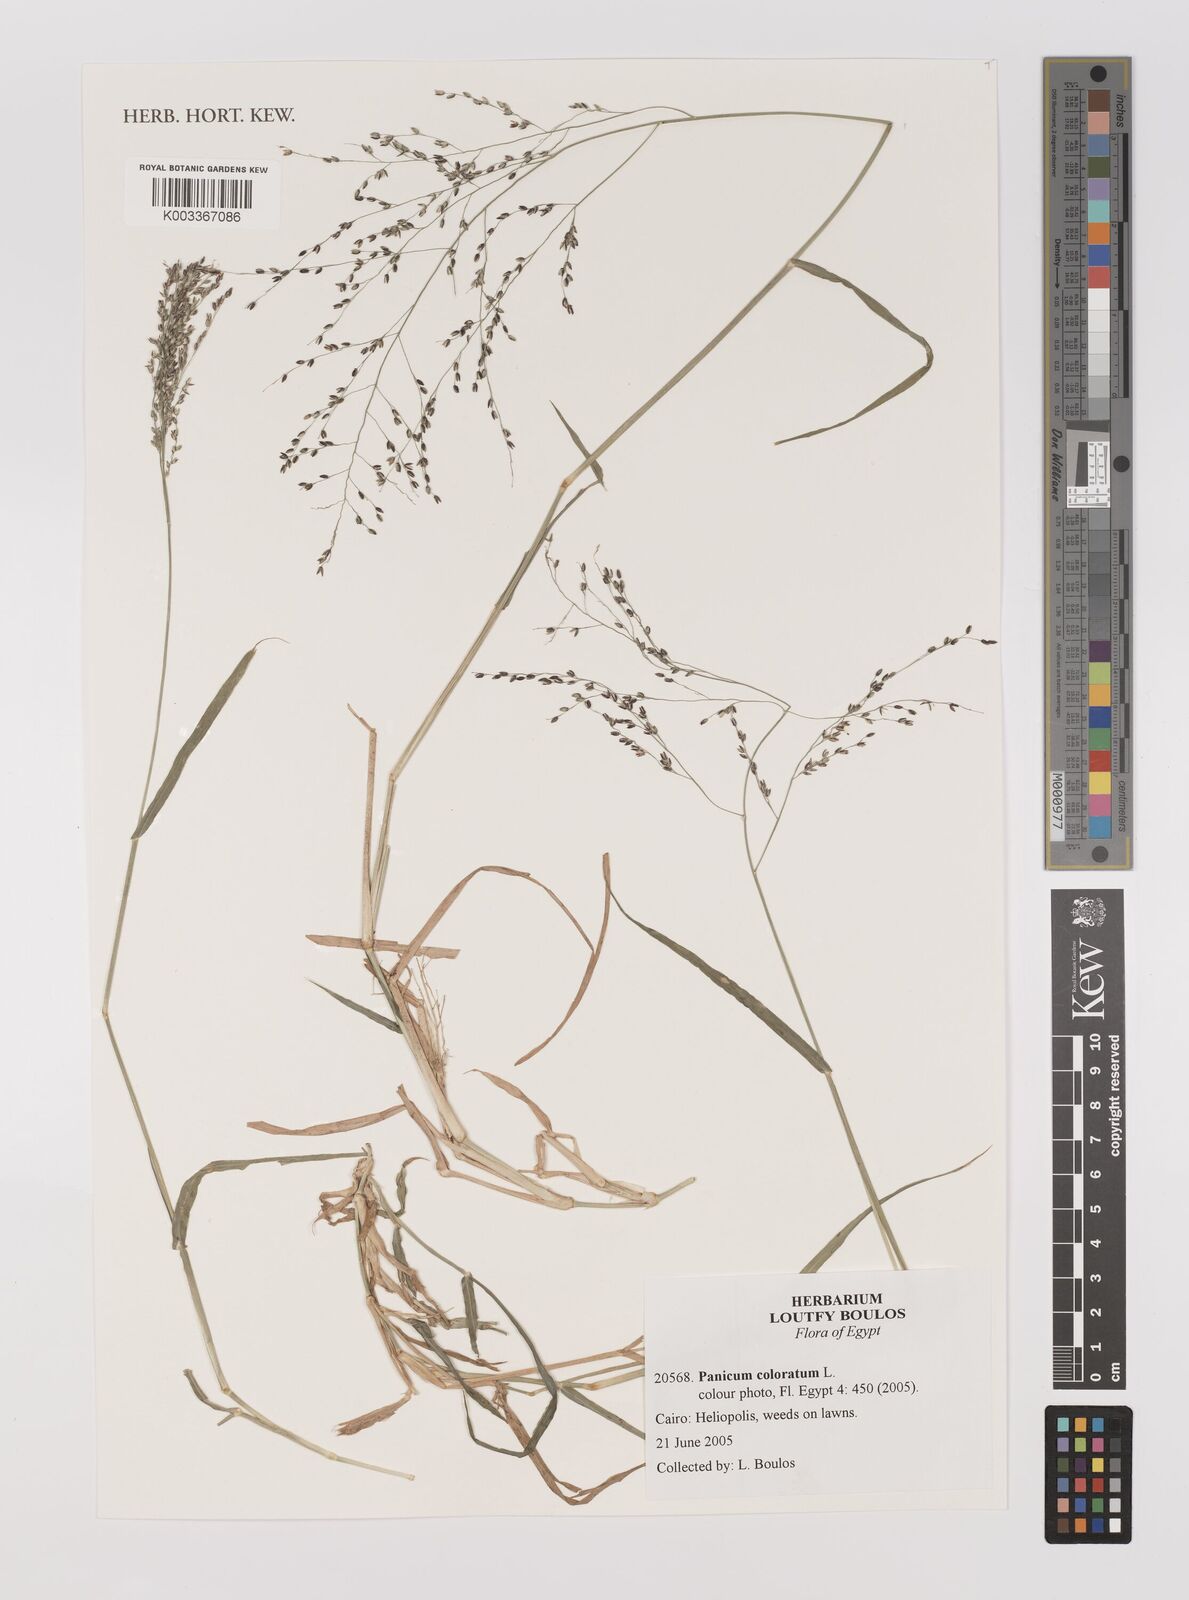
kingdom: Plantae
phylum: Tracheophyta
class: Liliopsida
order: Poales
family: Poaceae
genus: Panicum
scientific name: Panicum coloratum
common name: Kleingrass
